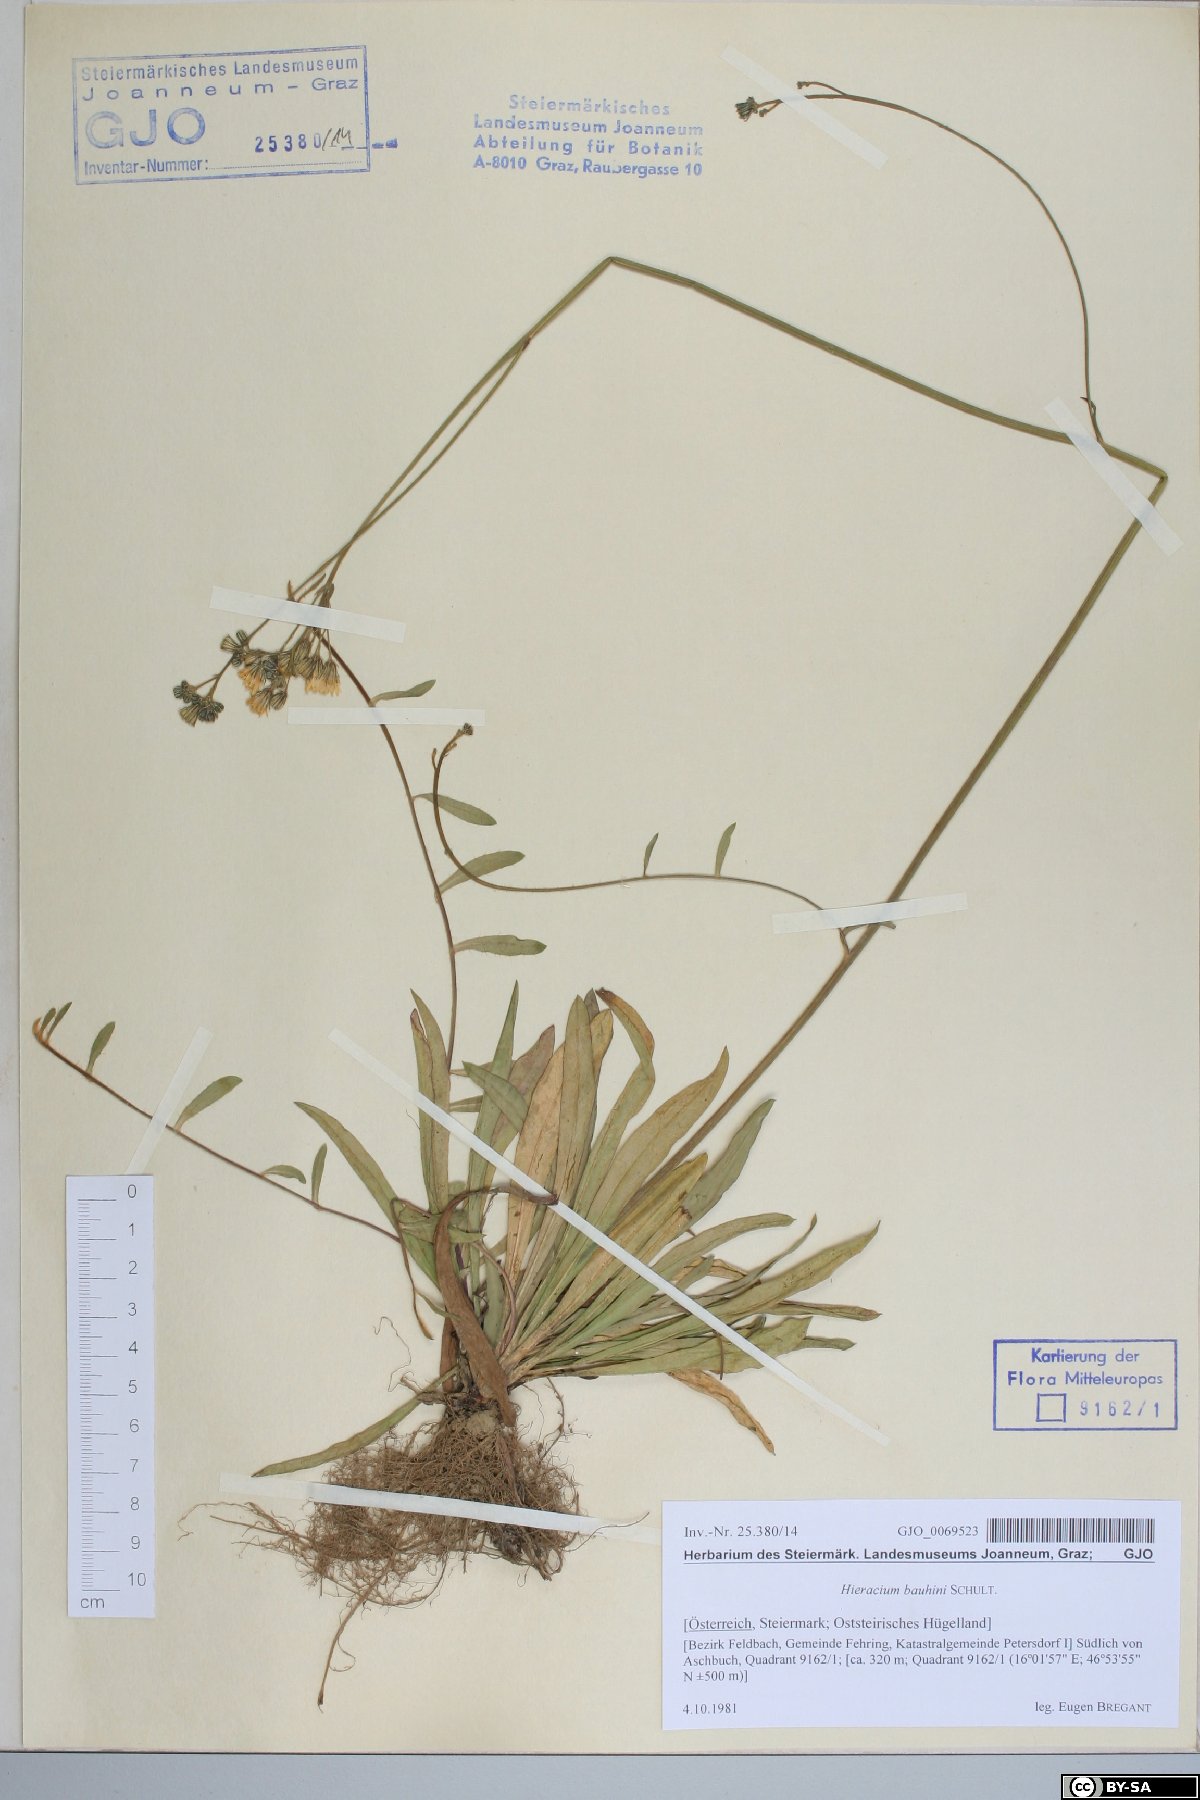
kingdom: Plantae
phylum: Tracheophyta
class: Magnoliopsida
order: Asterales
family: Asteraceae
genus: Pilosella
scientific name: Pilosella bauhini
